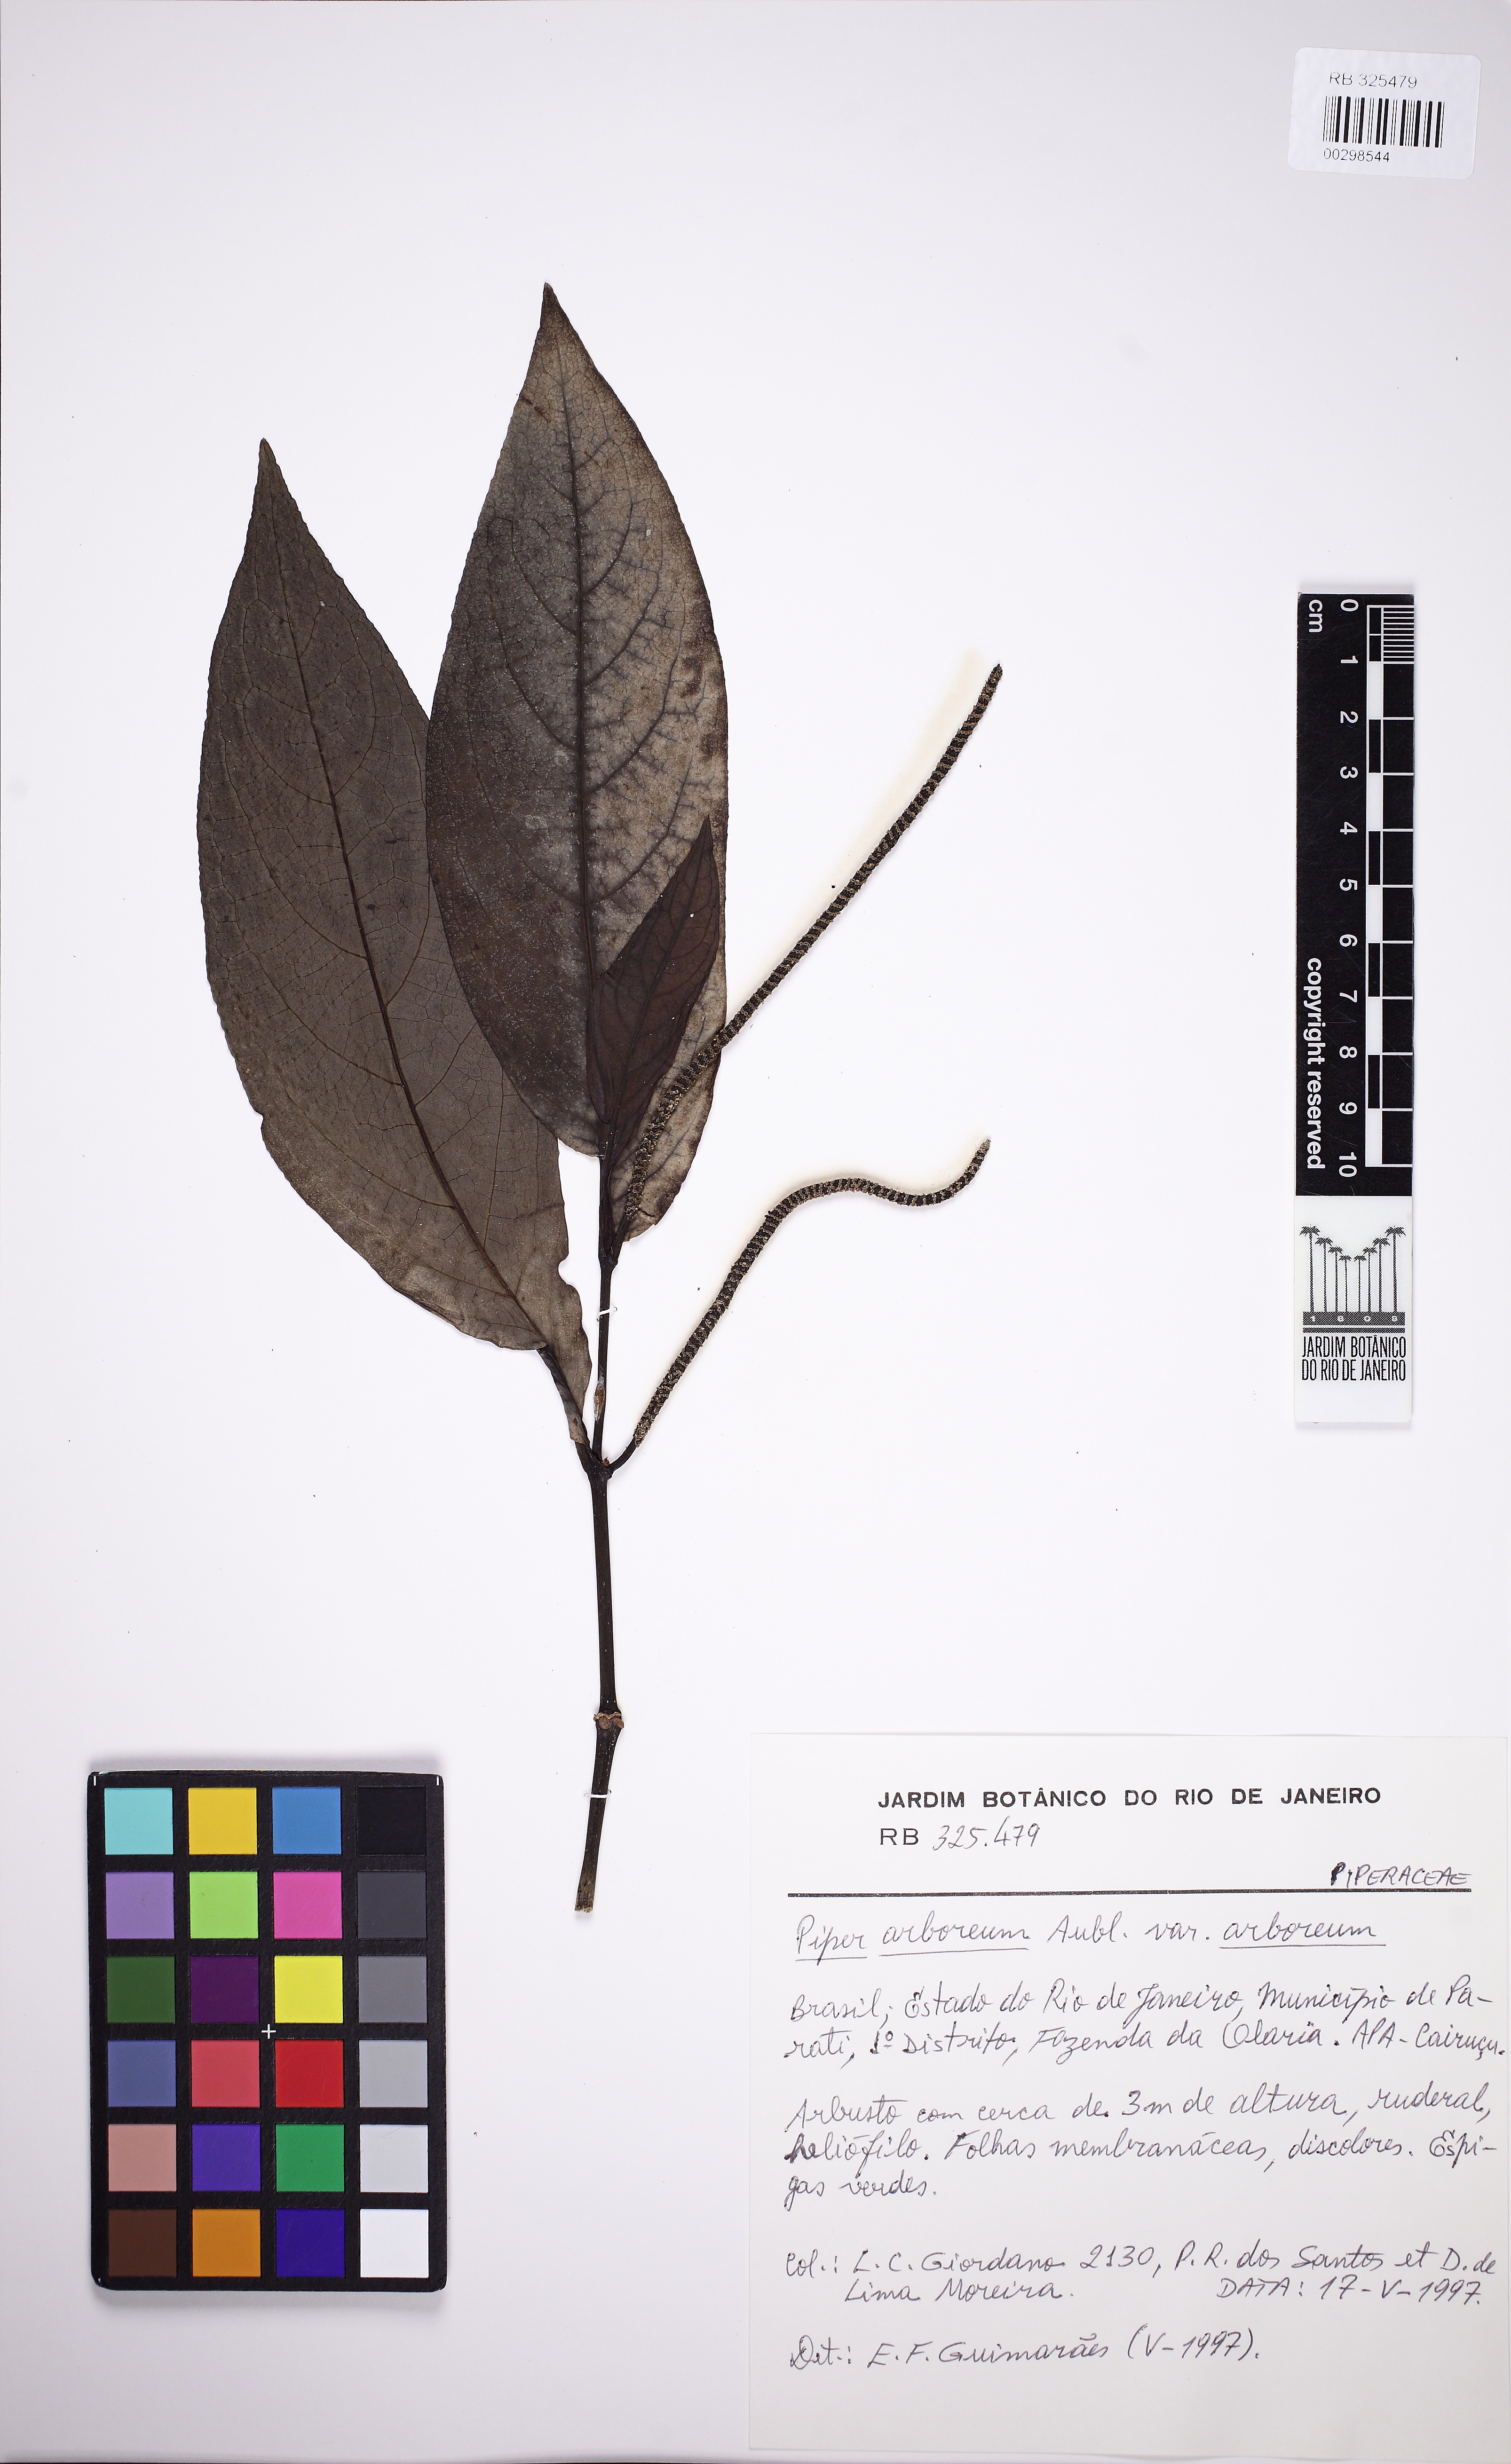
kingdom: Plantae
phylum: Tracheophyta
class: Magnoliopsida
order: Piperales
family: Piperaceae
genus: Piper
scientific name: Piper arboreum
